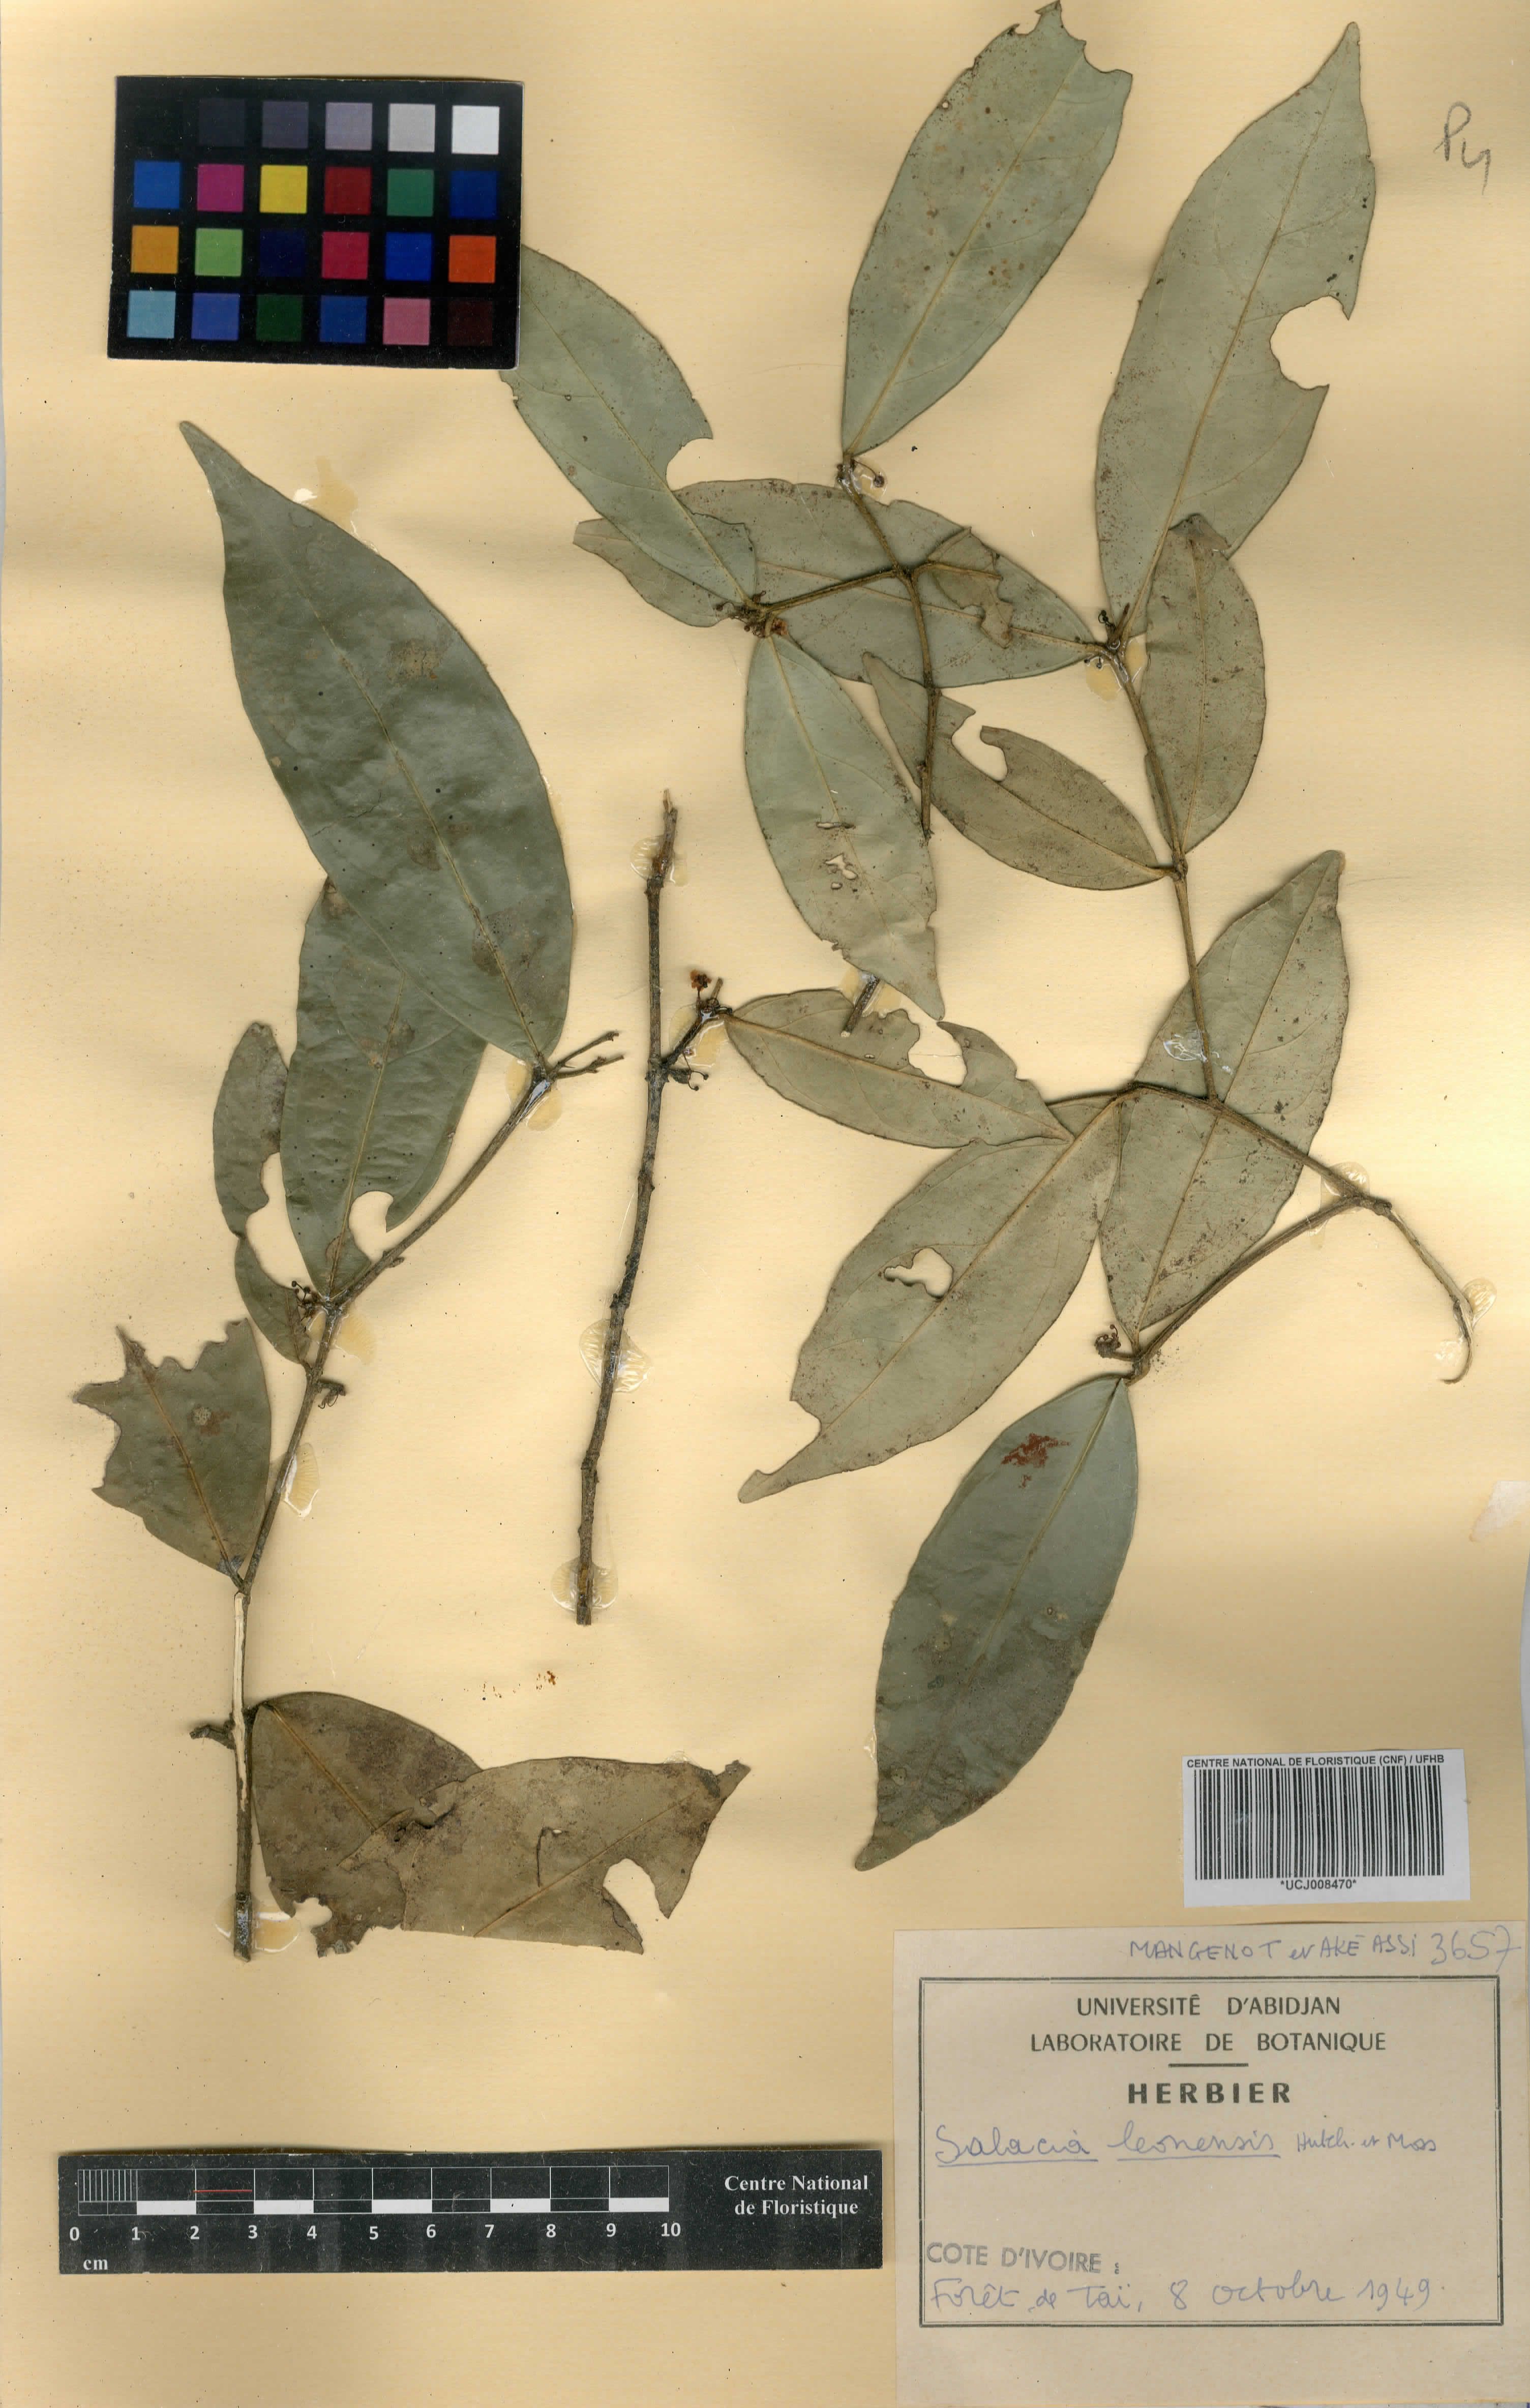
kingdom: Plantae
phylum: Tracheophyta
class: Magnoliopsida
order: Celastrales
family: Celastraceae
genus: Salacia
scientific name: Salacia lehmbachii
